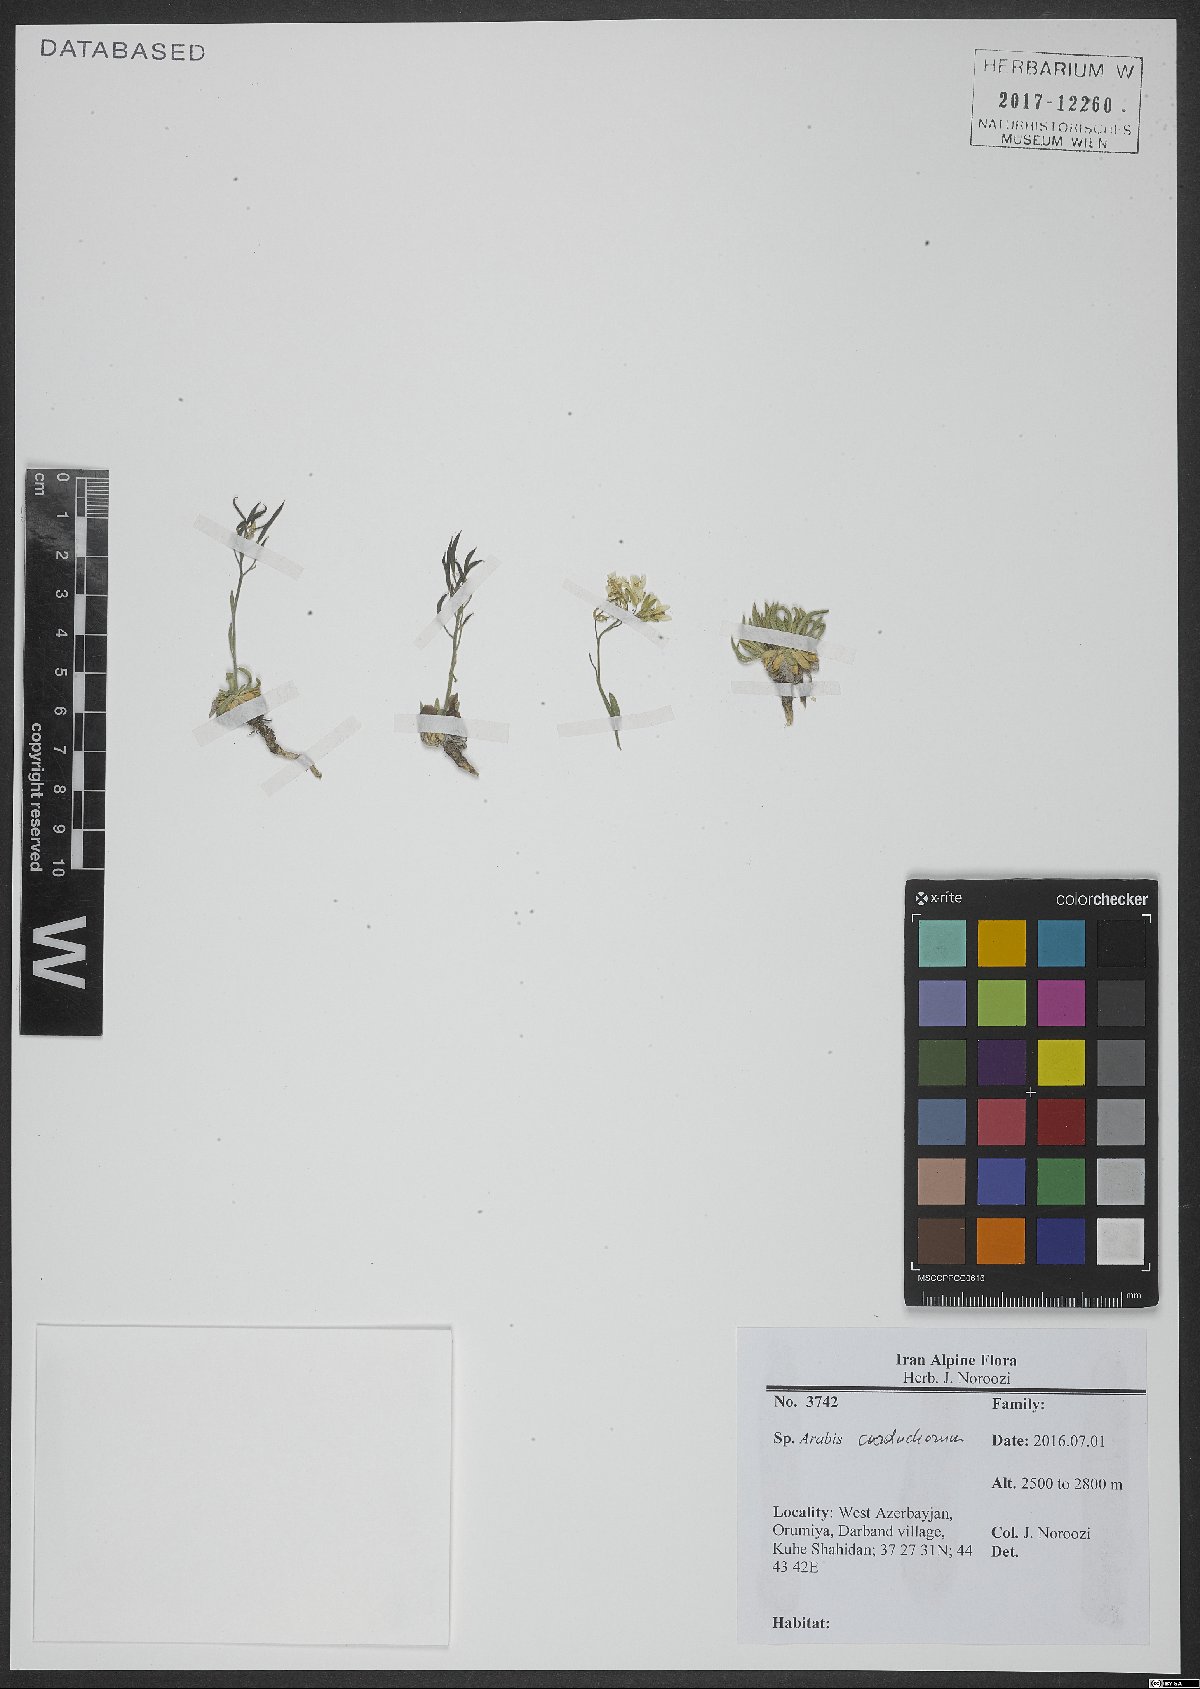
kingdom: Plantae
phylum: Tracheophyta
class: Magnoliopsida
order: Brassicales
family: Brassicaceae
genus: Arabis
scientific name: Arabis carduchorum
